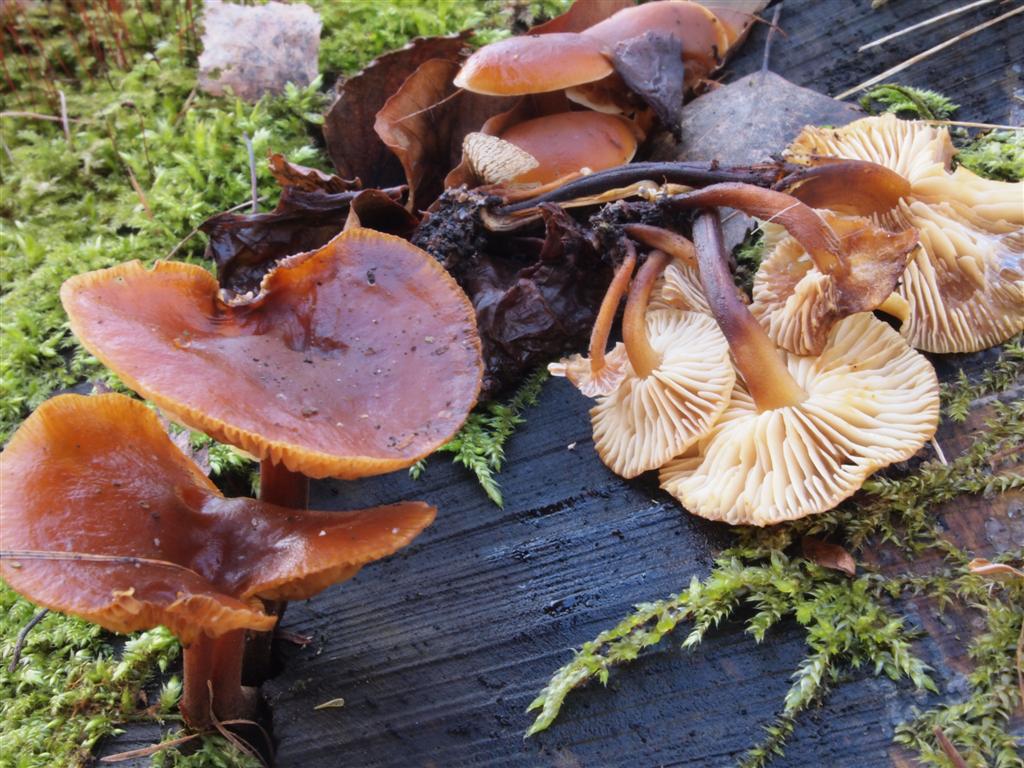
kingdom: Fungi
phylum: Basidiomycota
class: Agaricomycetes
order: Agaricales
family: Physalacriaceae
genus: Flammulina
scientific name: Flammulina velutipes
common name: gul fløjlsfod
